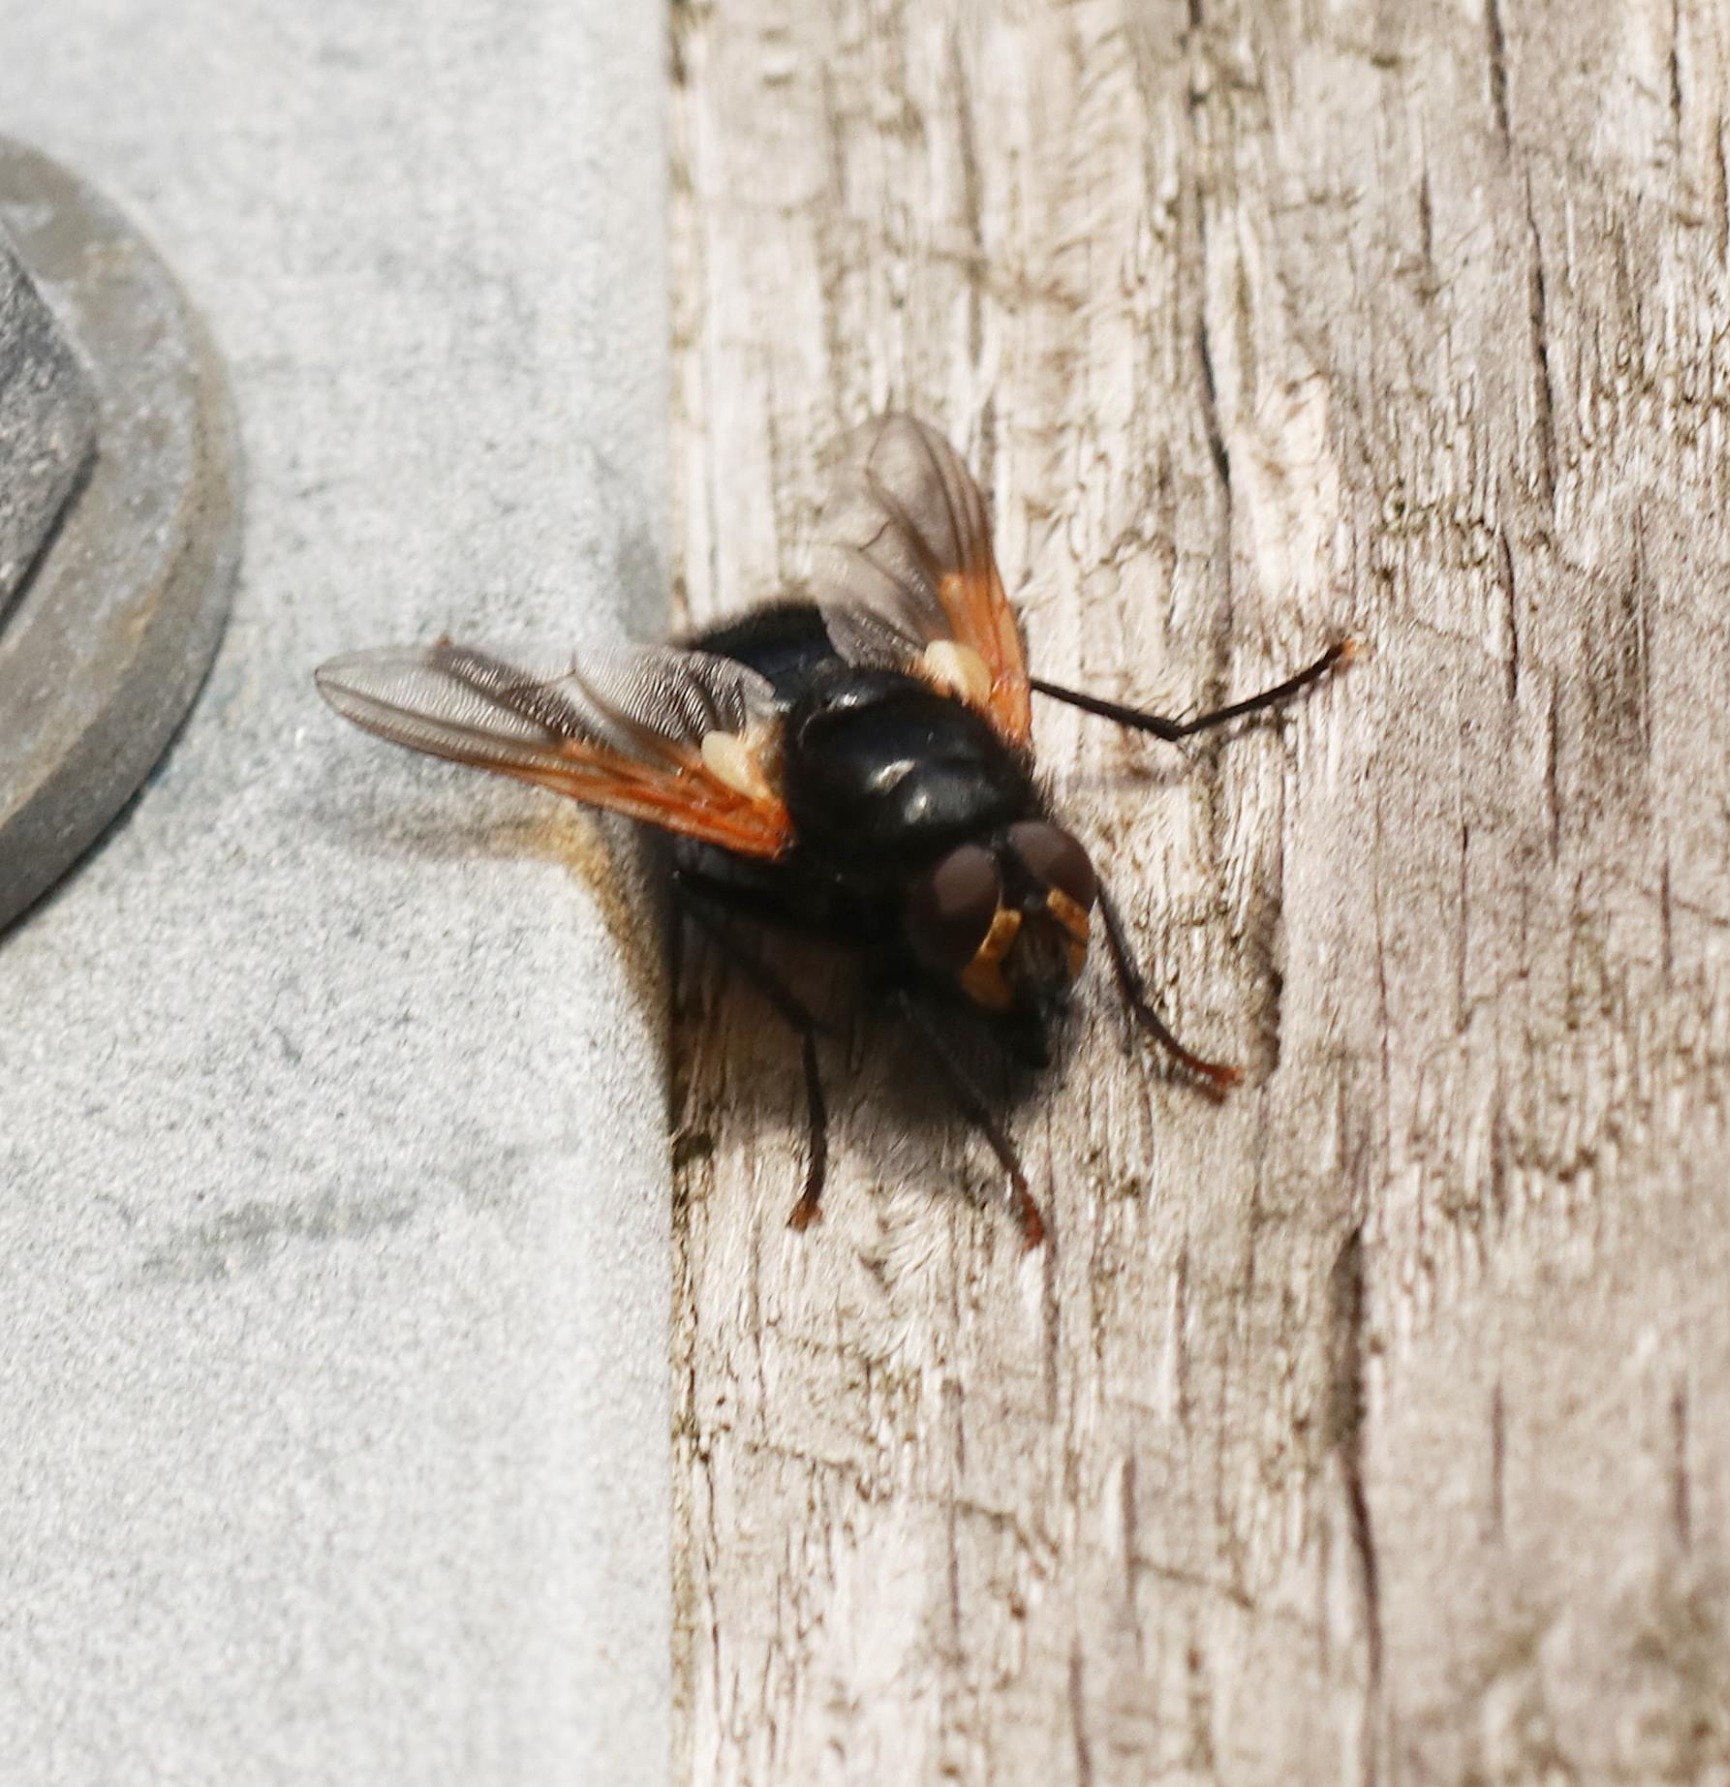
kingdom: Animalia
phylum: Arthropoda
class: Insecta
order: Diptera
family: Muscidae
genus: Mesembrina
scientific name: Mesembrina meridiana
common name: Gulvinget flue
